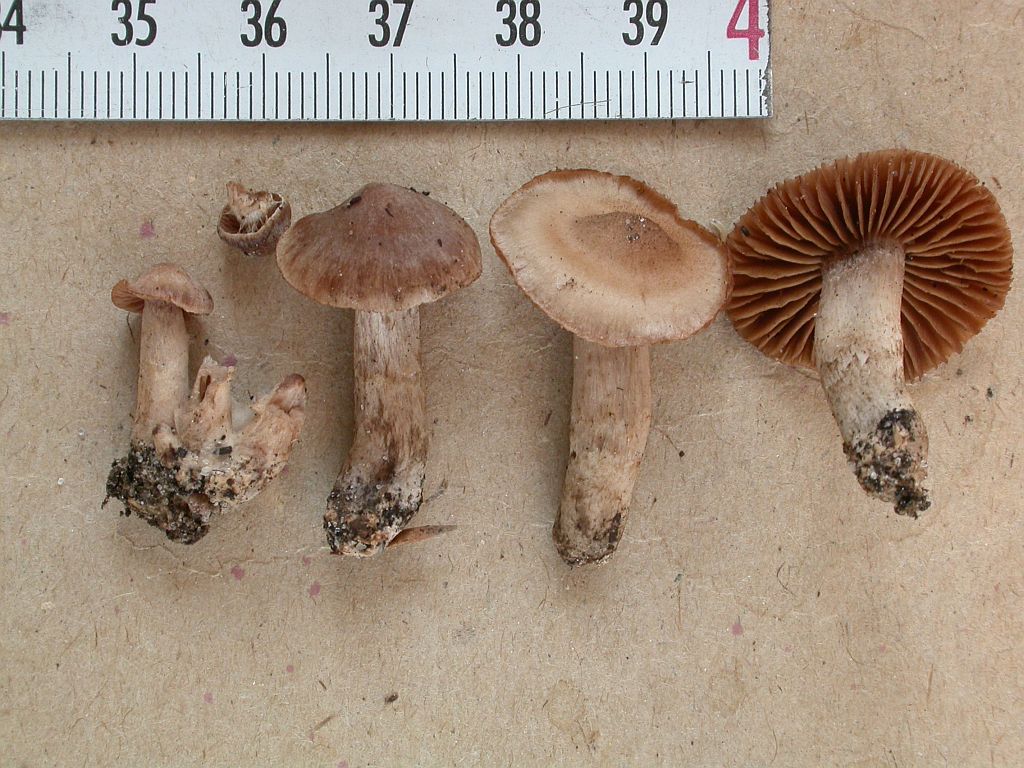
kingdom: Fungi
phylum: Basidiomycota
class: Agaricomycetes
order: Agaricales
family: Cortinariaceae
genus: Cortinarius
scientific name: Cortinarius subtilis
